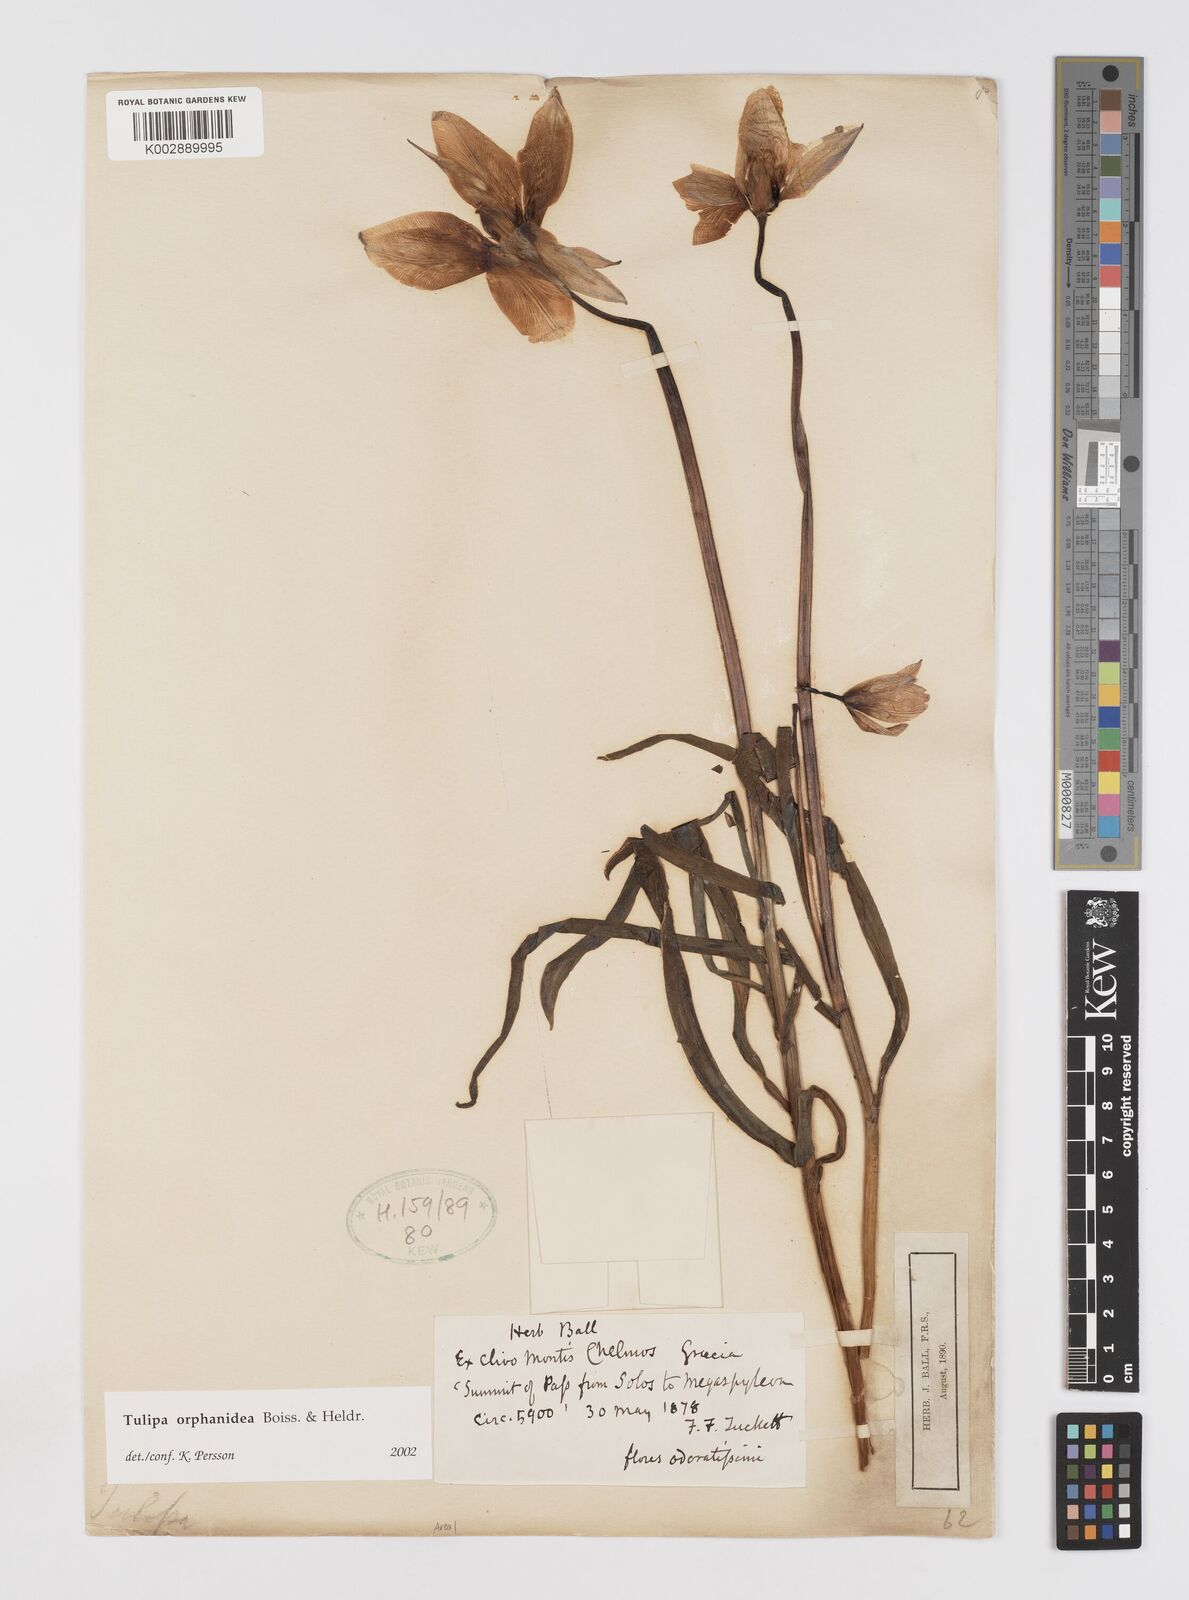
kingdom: Plantae
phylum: Tracheophyta
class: Liliopsida
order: Liliales
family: Liliaceae
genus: Tulipa
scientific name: Tulipa orphanidea
